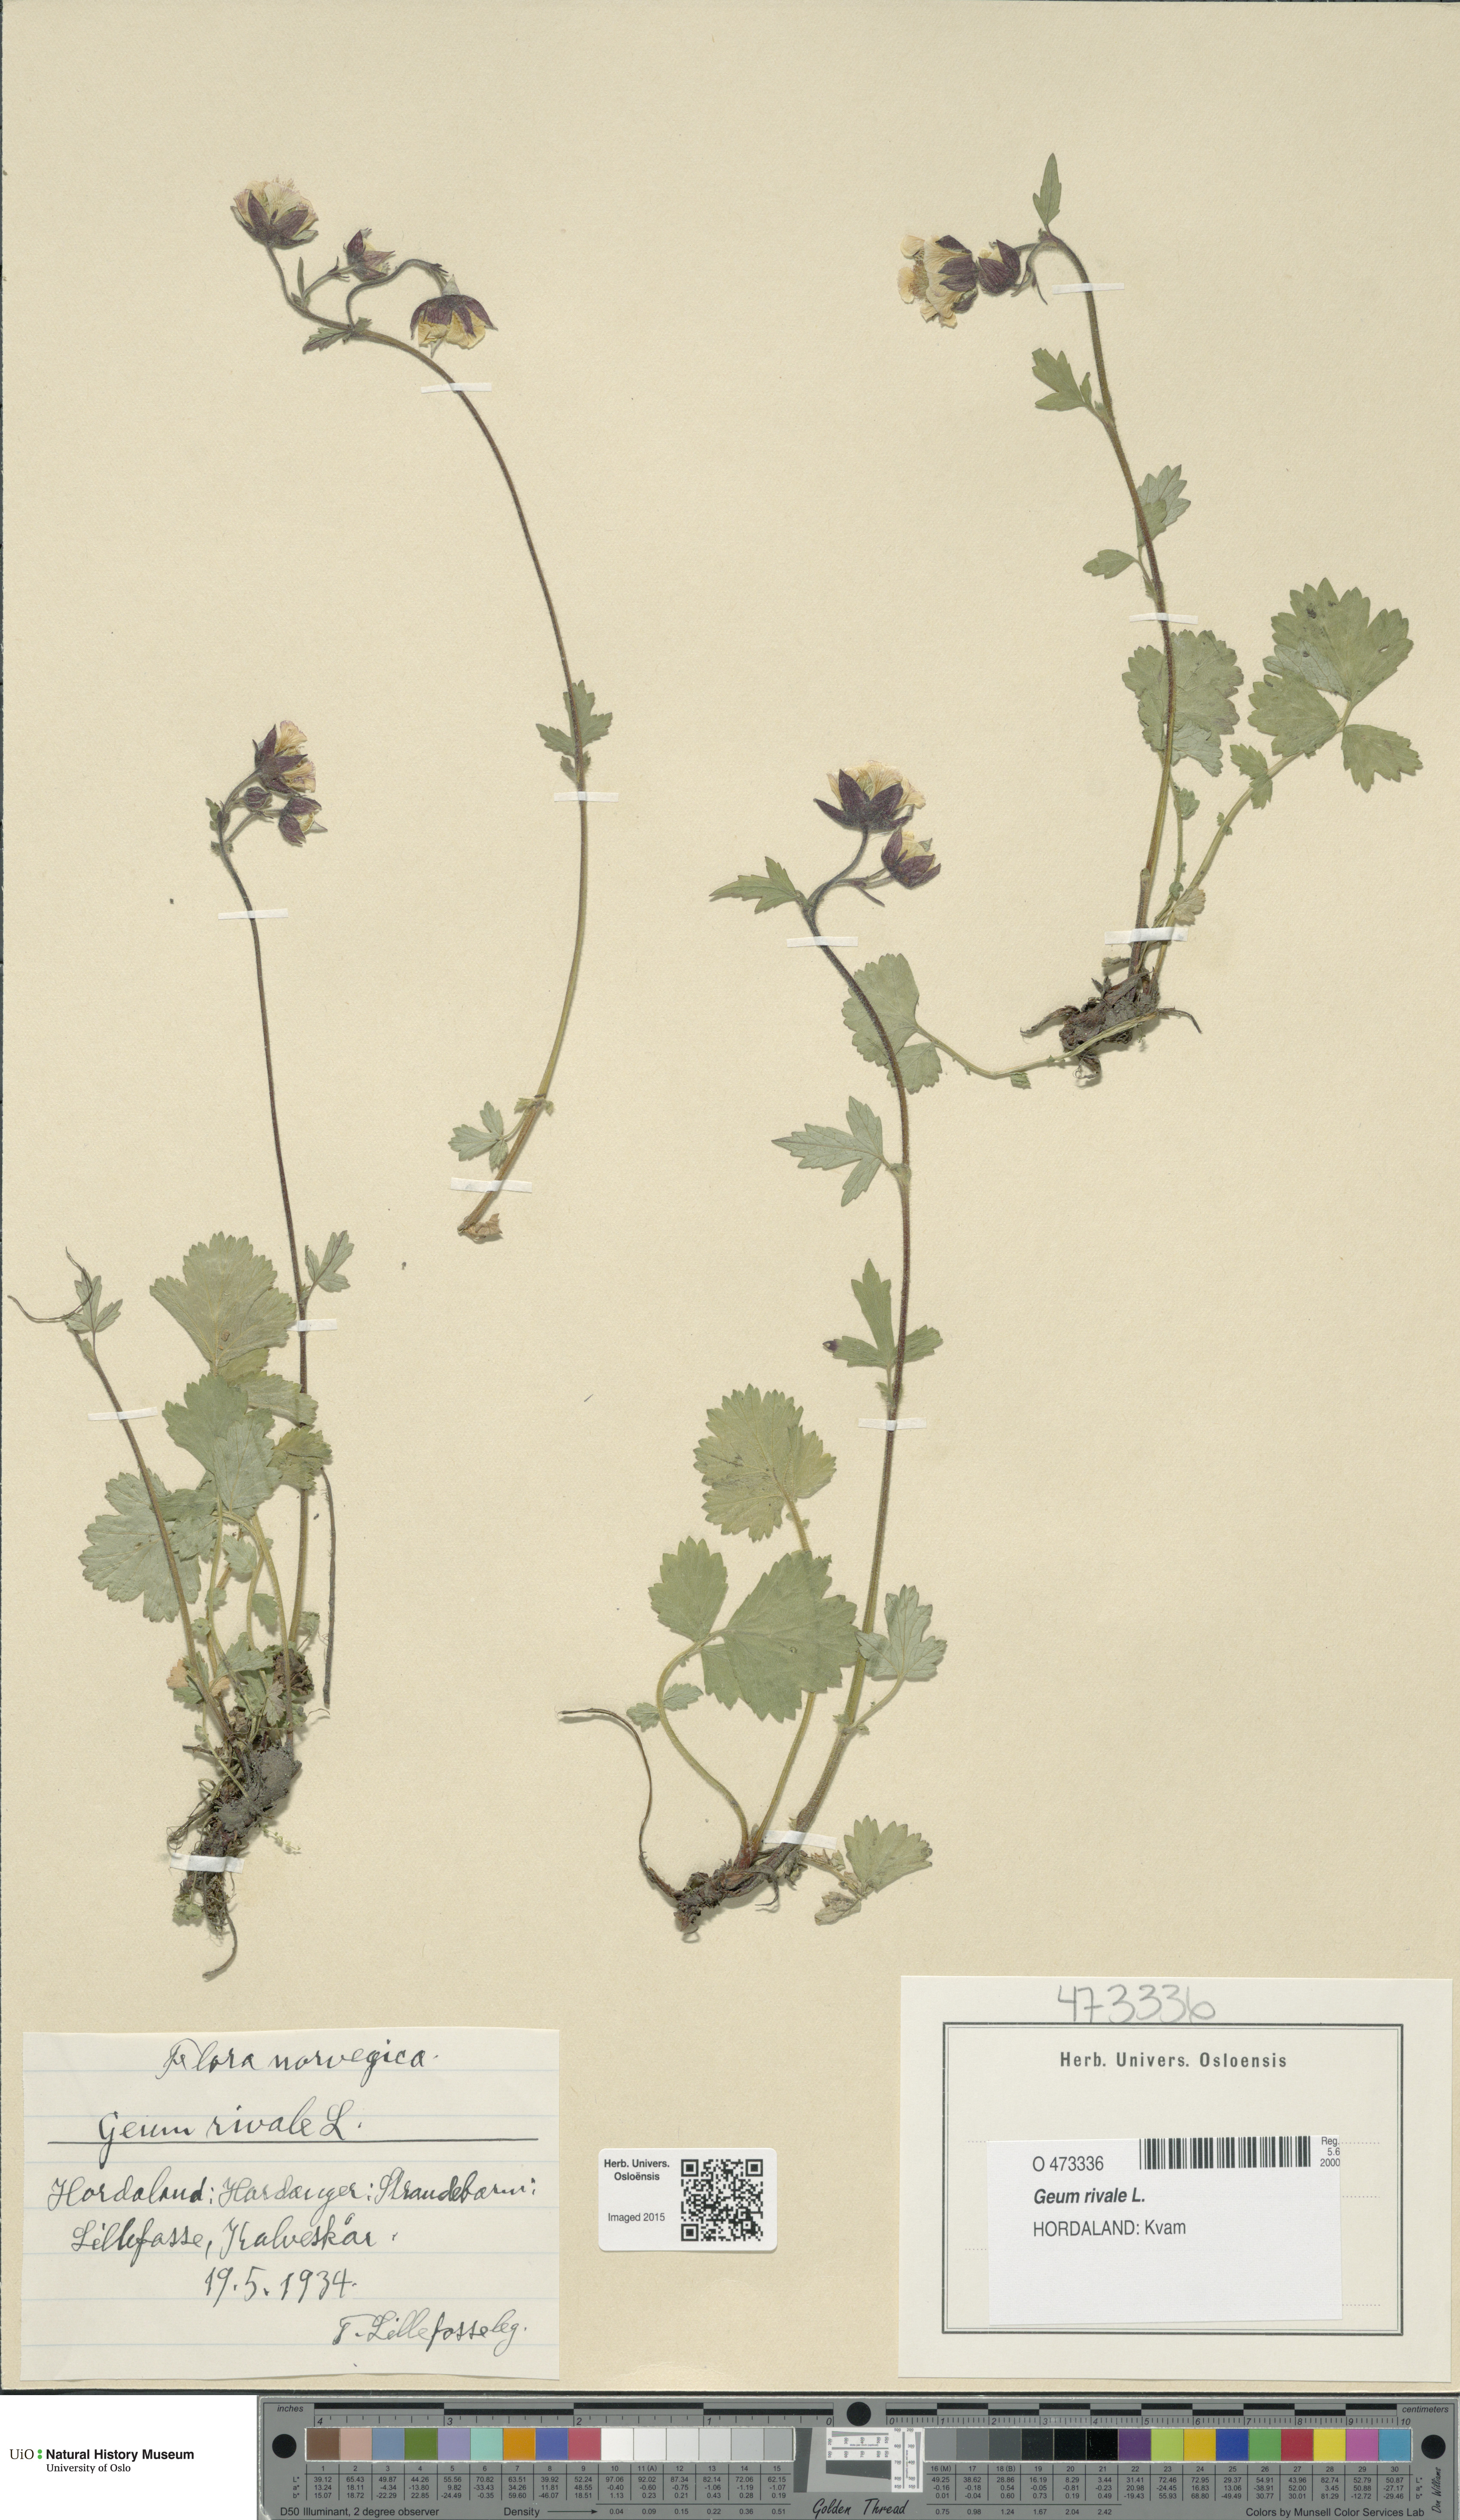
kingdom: Plantae
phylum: Tracheophyta
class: Magnoliopsida
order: Rosales
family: Rosaceae
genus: Geum
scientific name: Geum rivale
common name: Water avens
